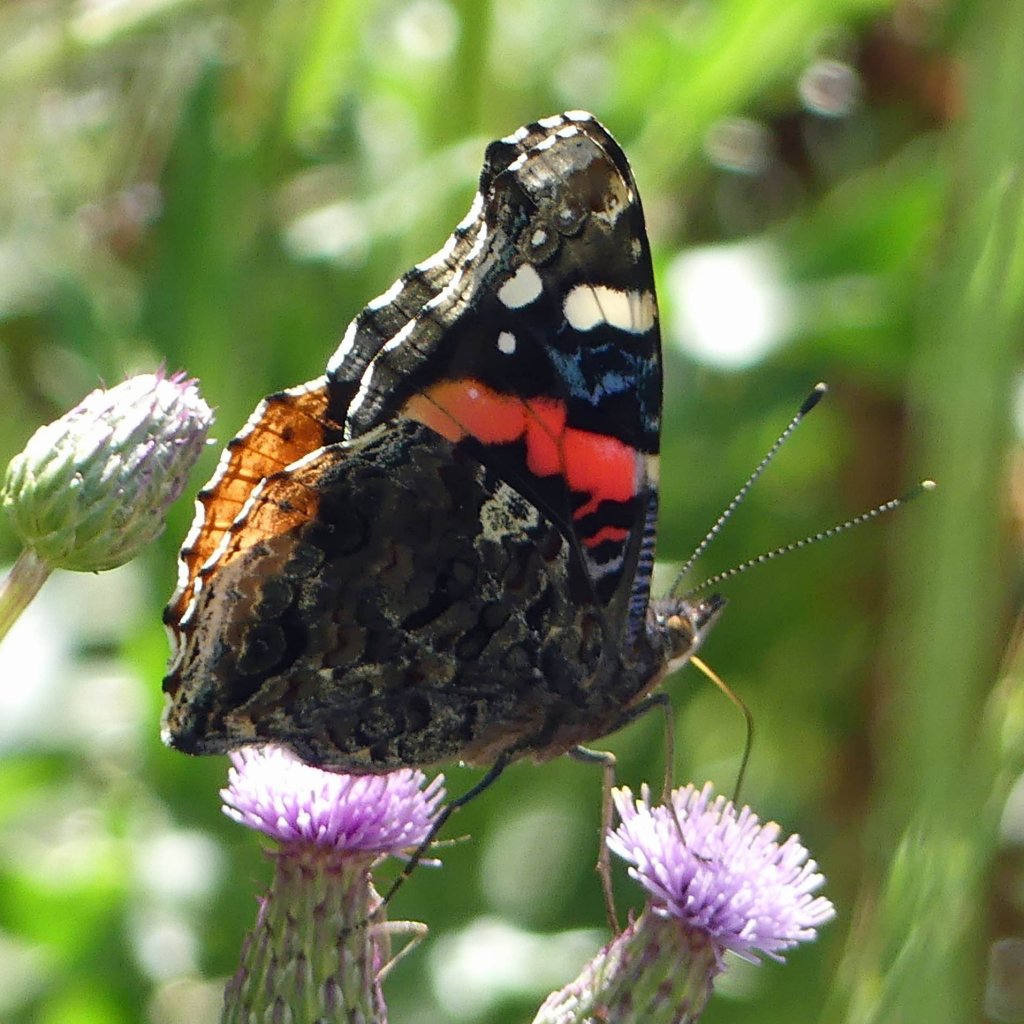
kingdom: Animalia
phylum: Arthropoda
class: Insecta
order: Lepidoptera
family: Nymphalidae
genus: Vanessa
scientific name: Vanessa atalanta
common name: Red Admiral
